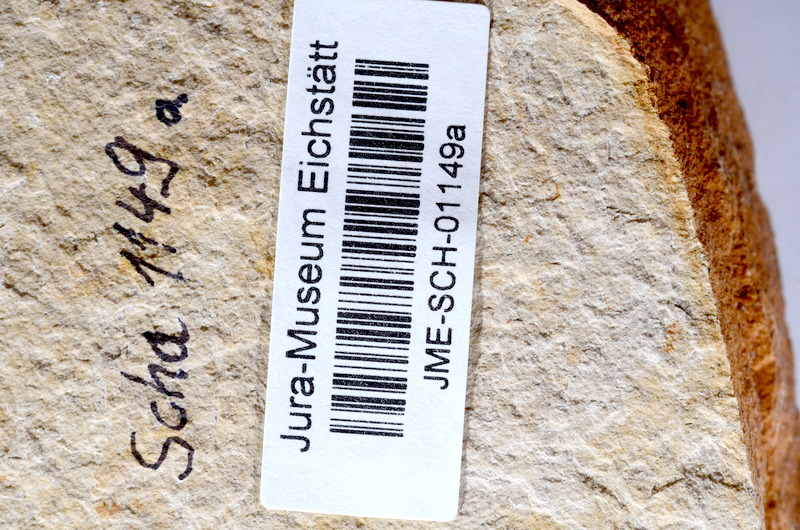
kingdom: Animalia
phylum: Chordata
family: Ascalaboidae
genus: Tharsis
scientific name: Tharsis dubius
